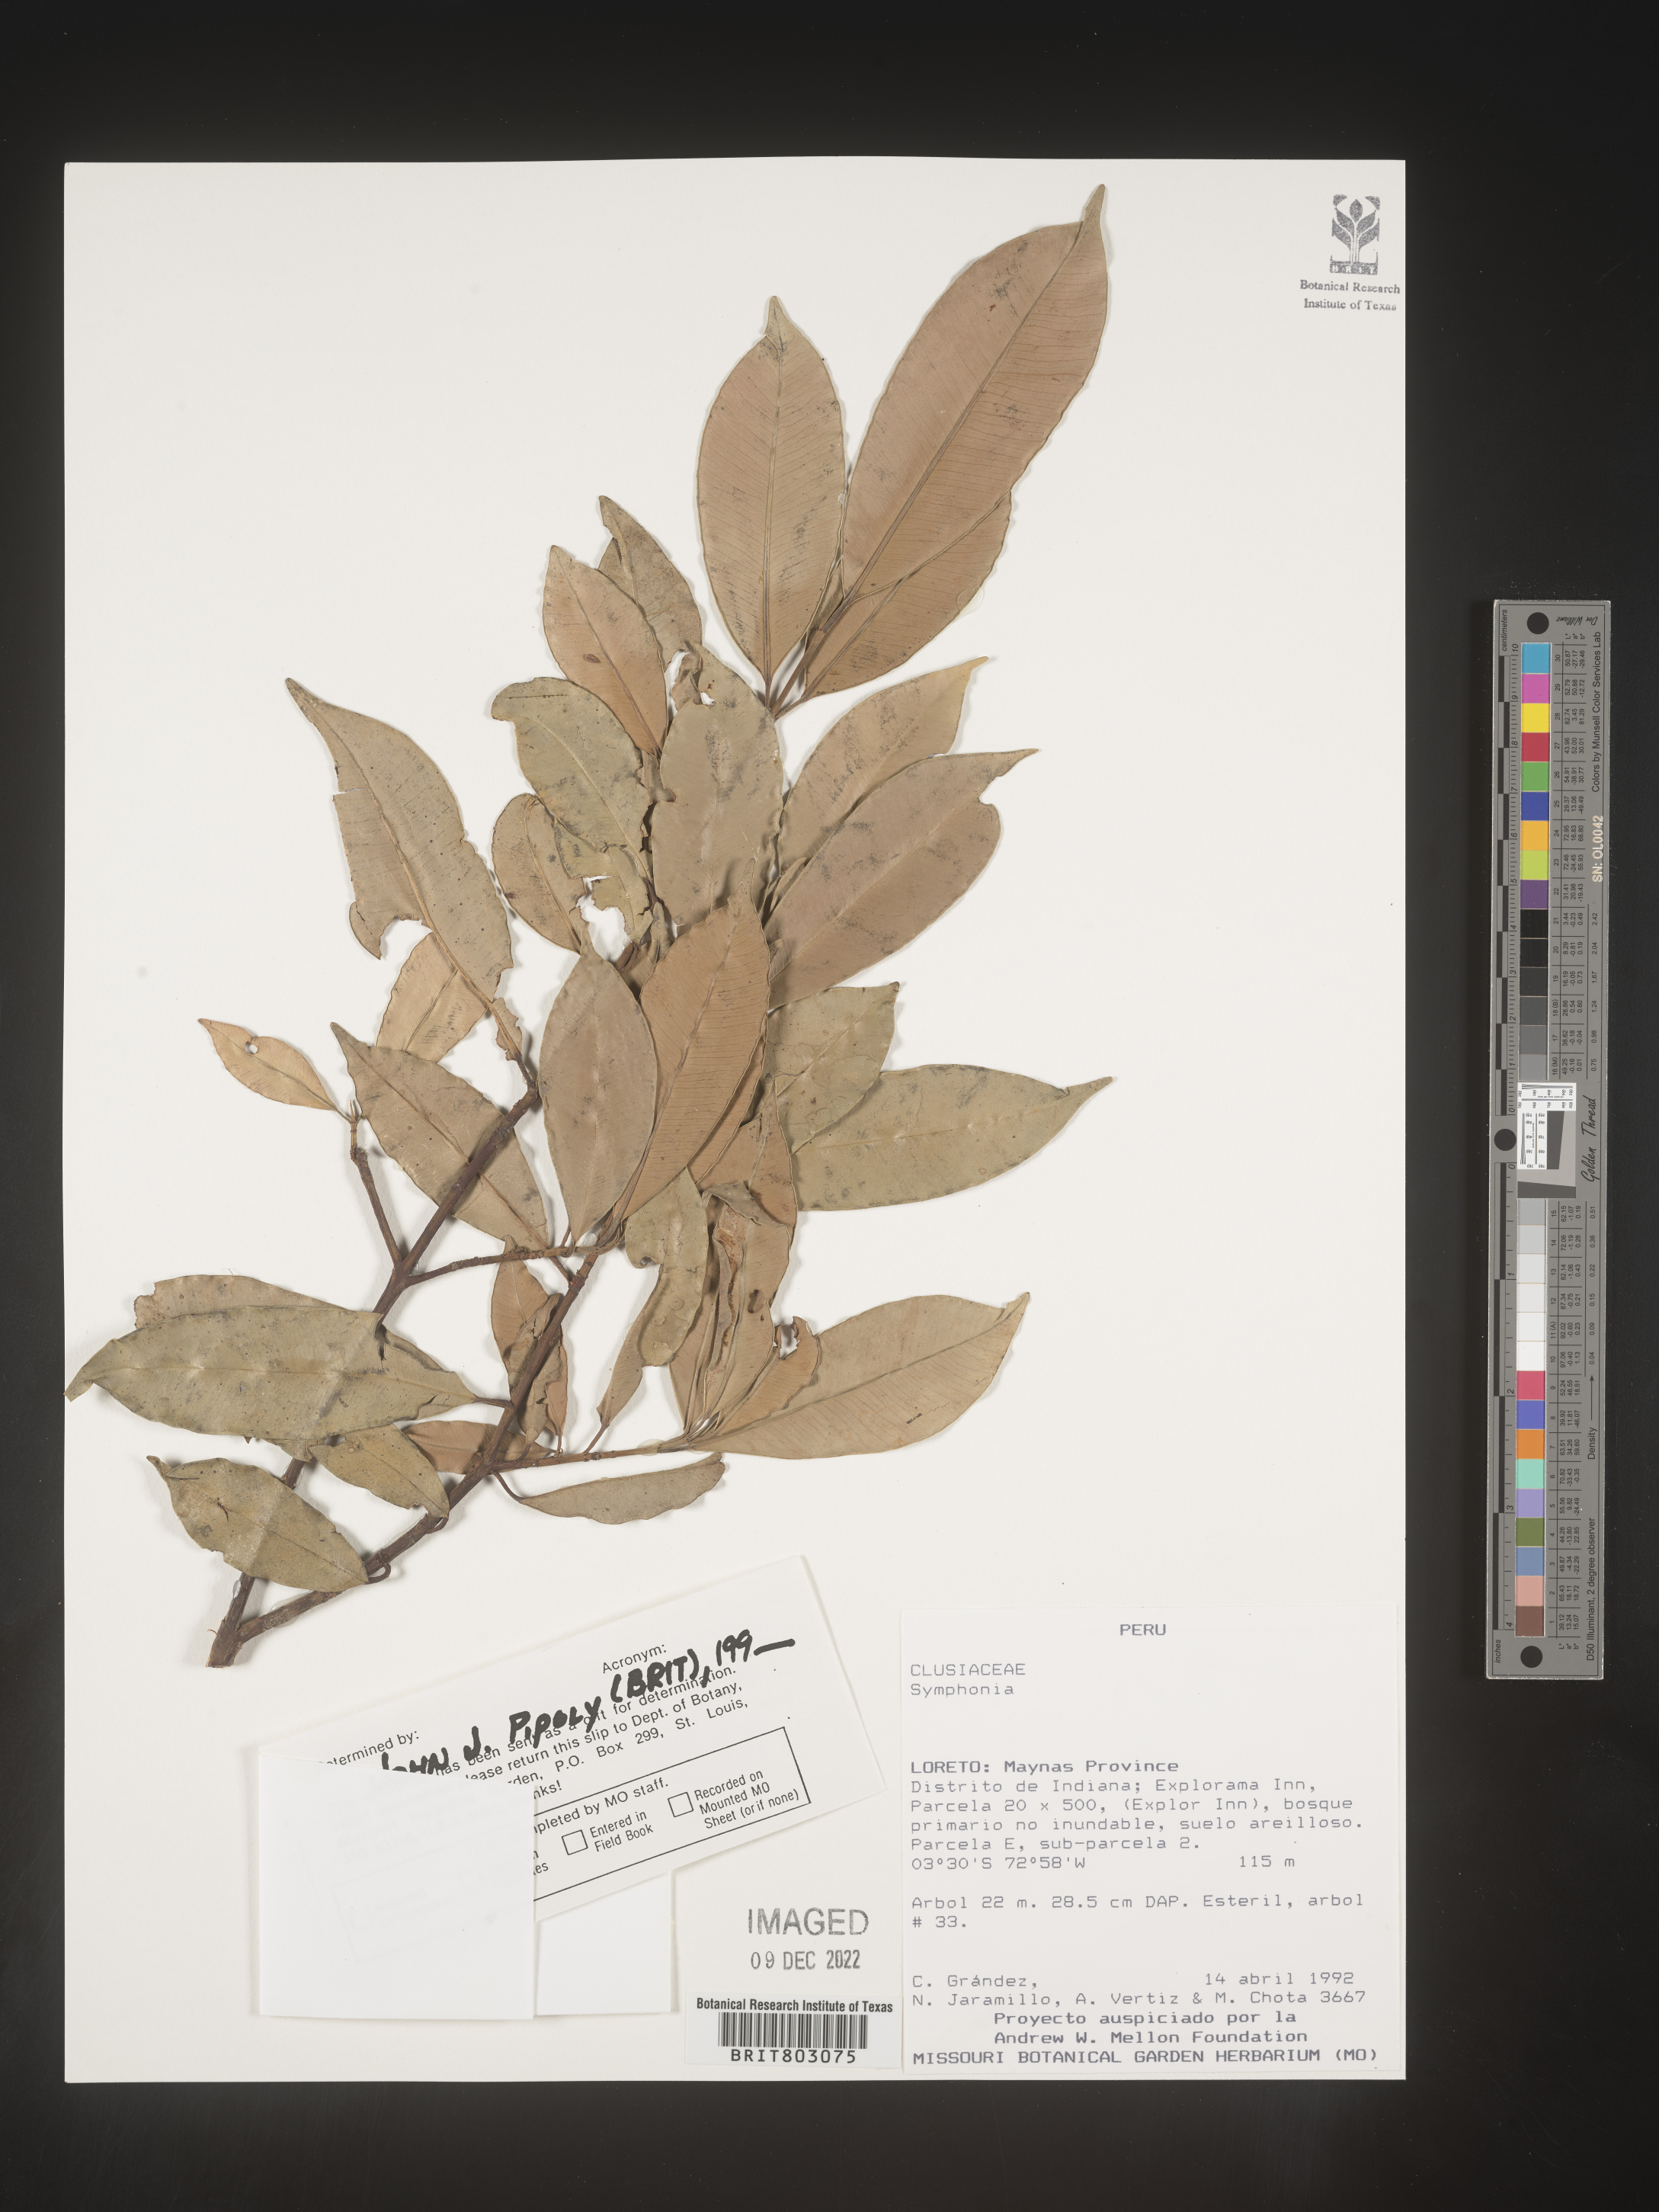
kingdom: Plantae
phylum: Tracheophyta
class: Magnoliopsida
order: Malpighiales
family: Clusiaceae
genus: Symphonia
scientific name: Symphonia
